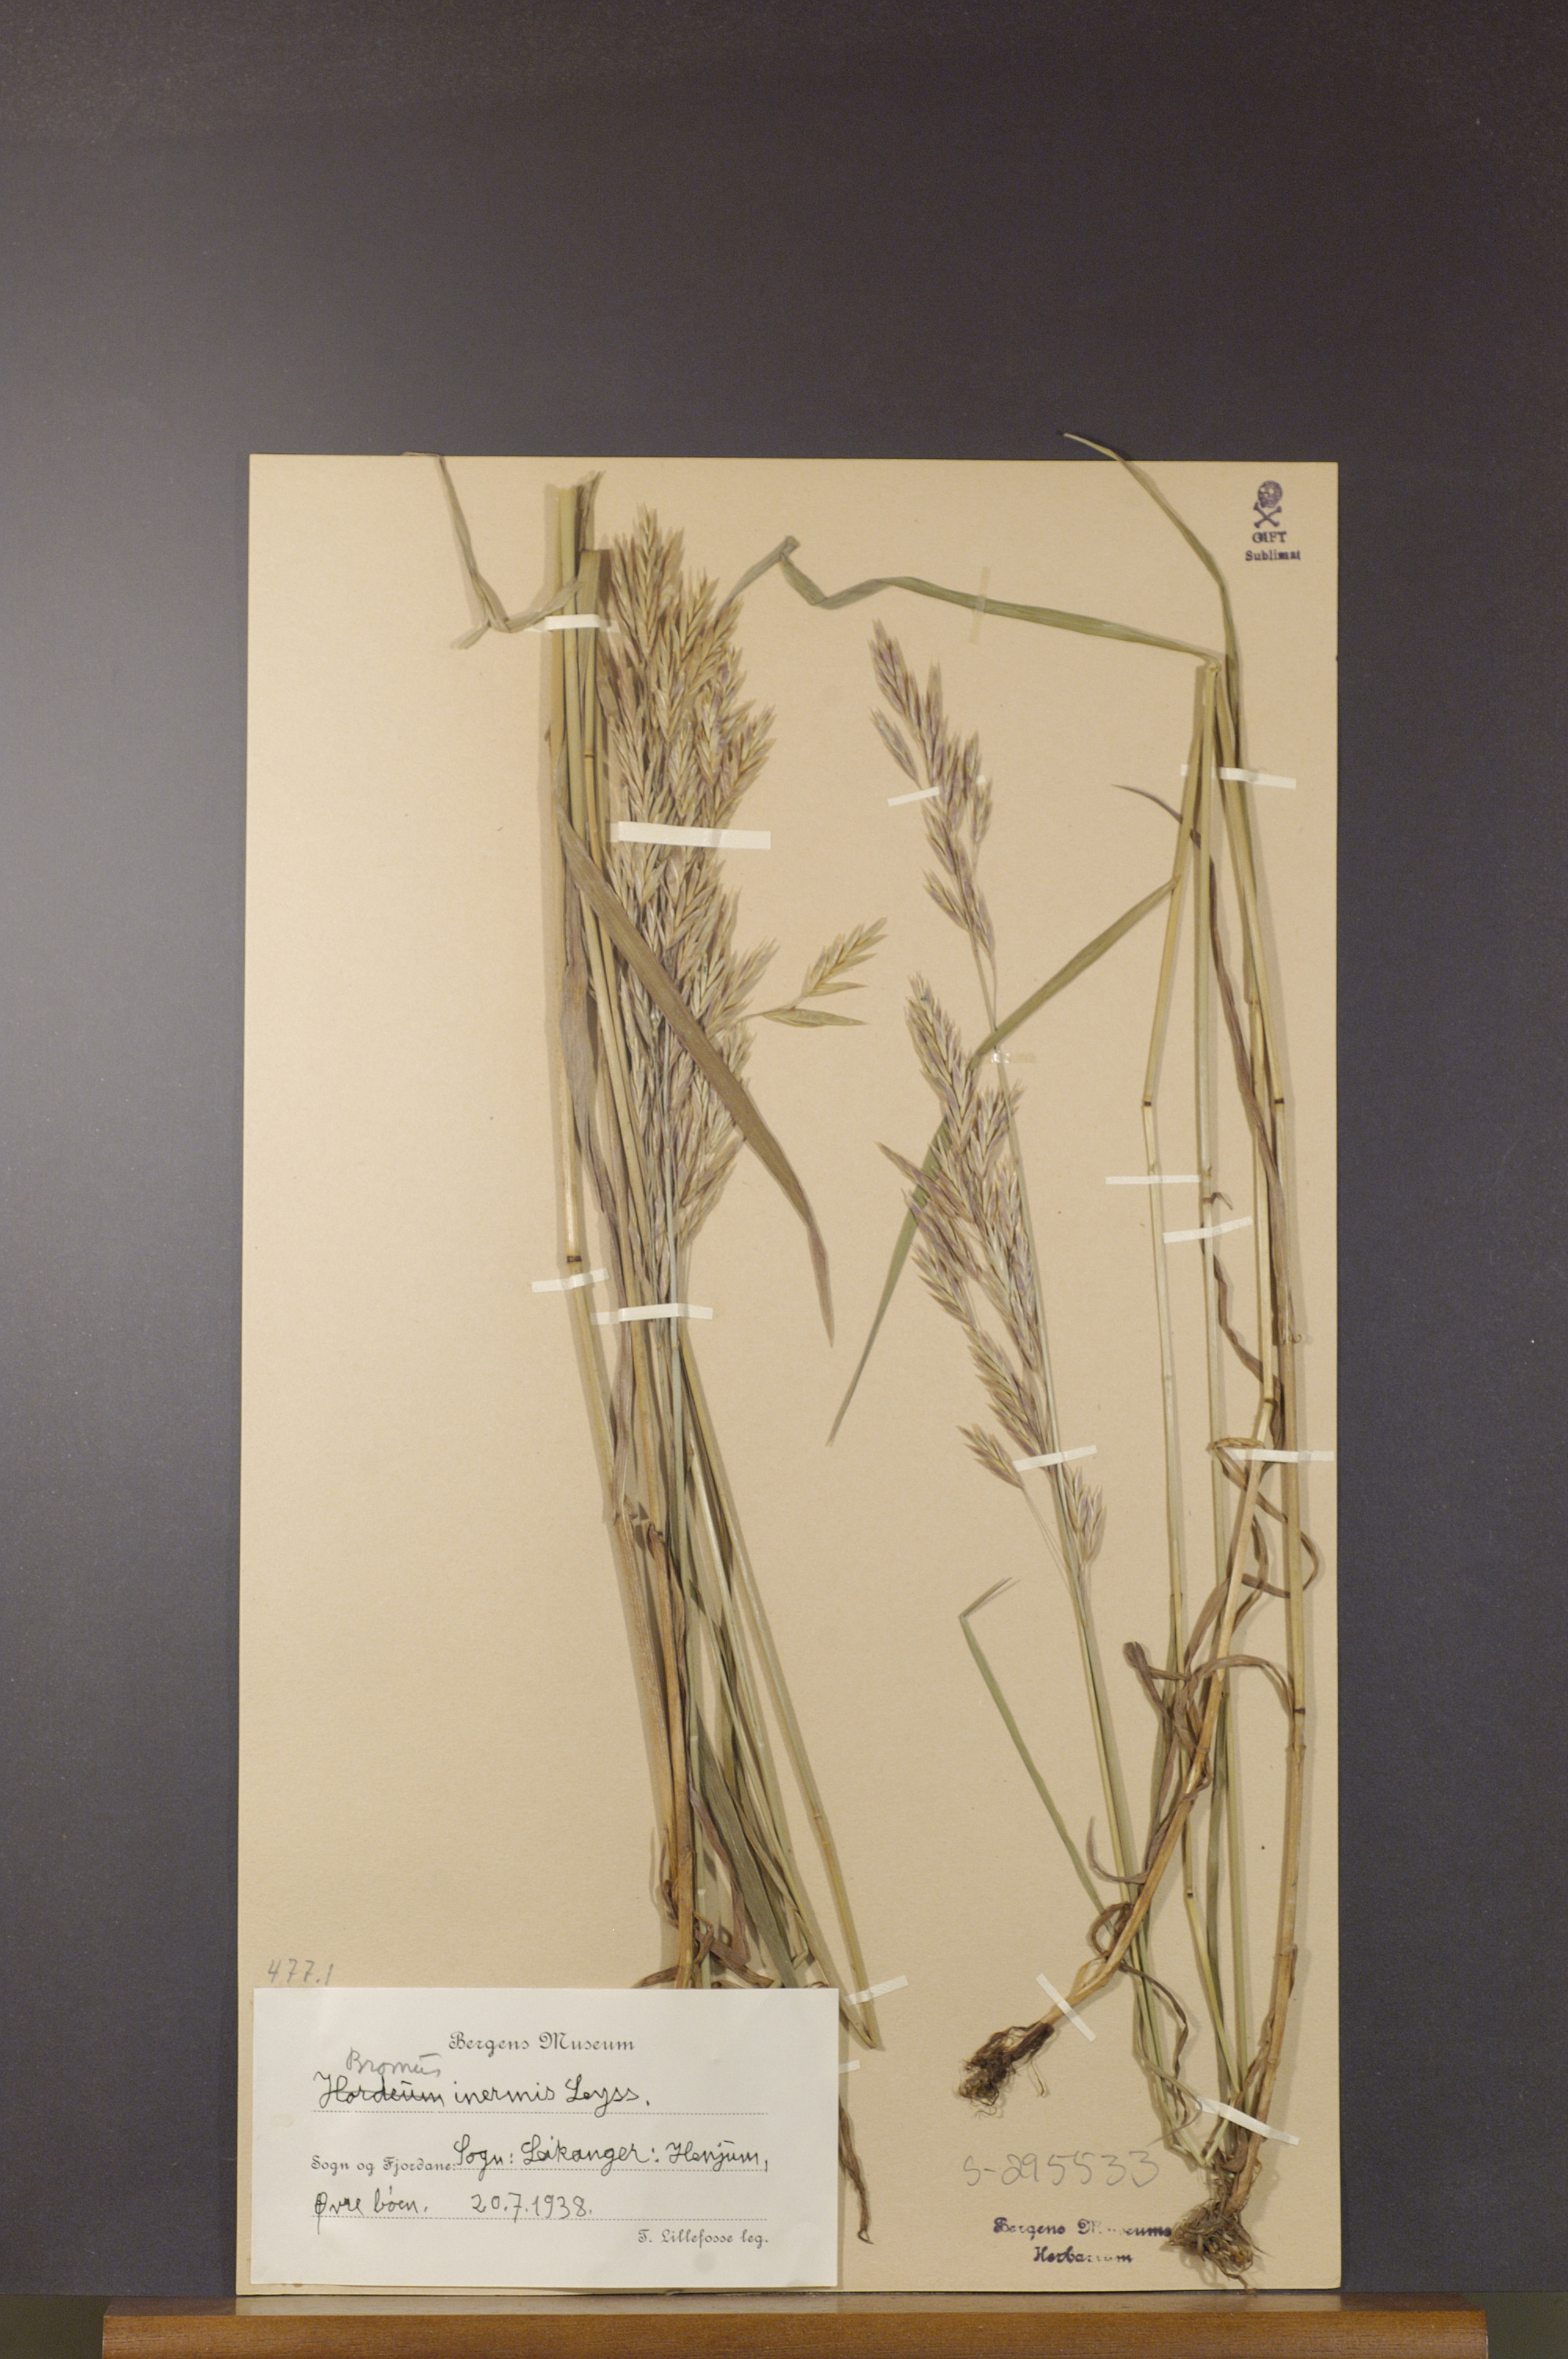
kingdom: Plantae
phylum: Tracheophyta
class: Liliopsida
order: Poales
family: Poaceae
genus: Bromus
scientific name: Bromus inermis
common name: Smooth brome
